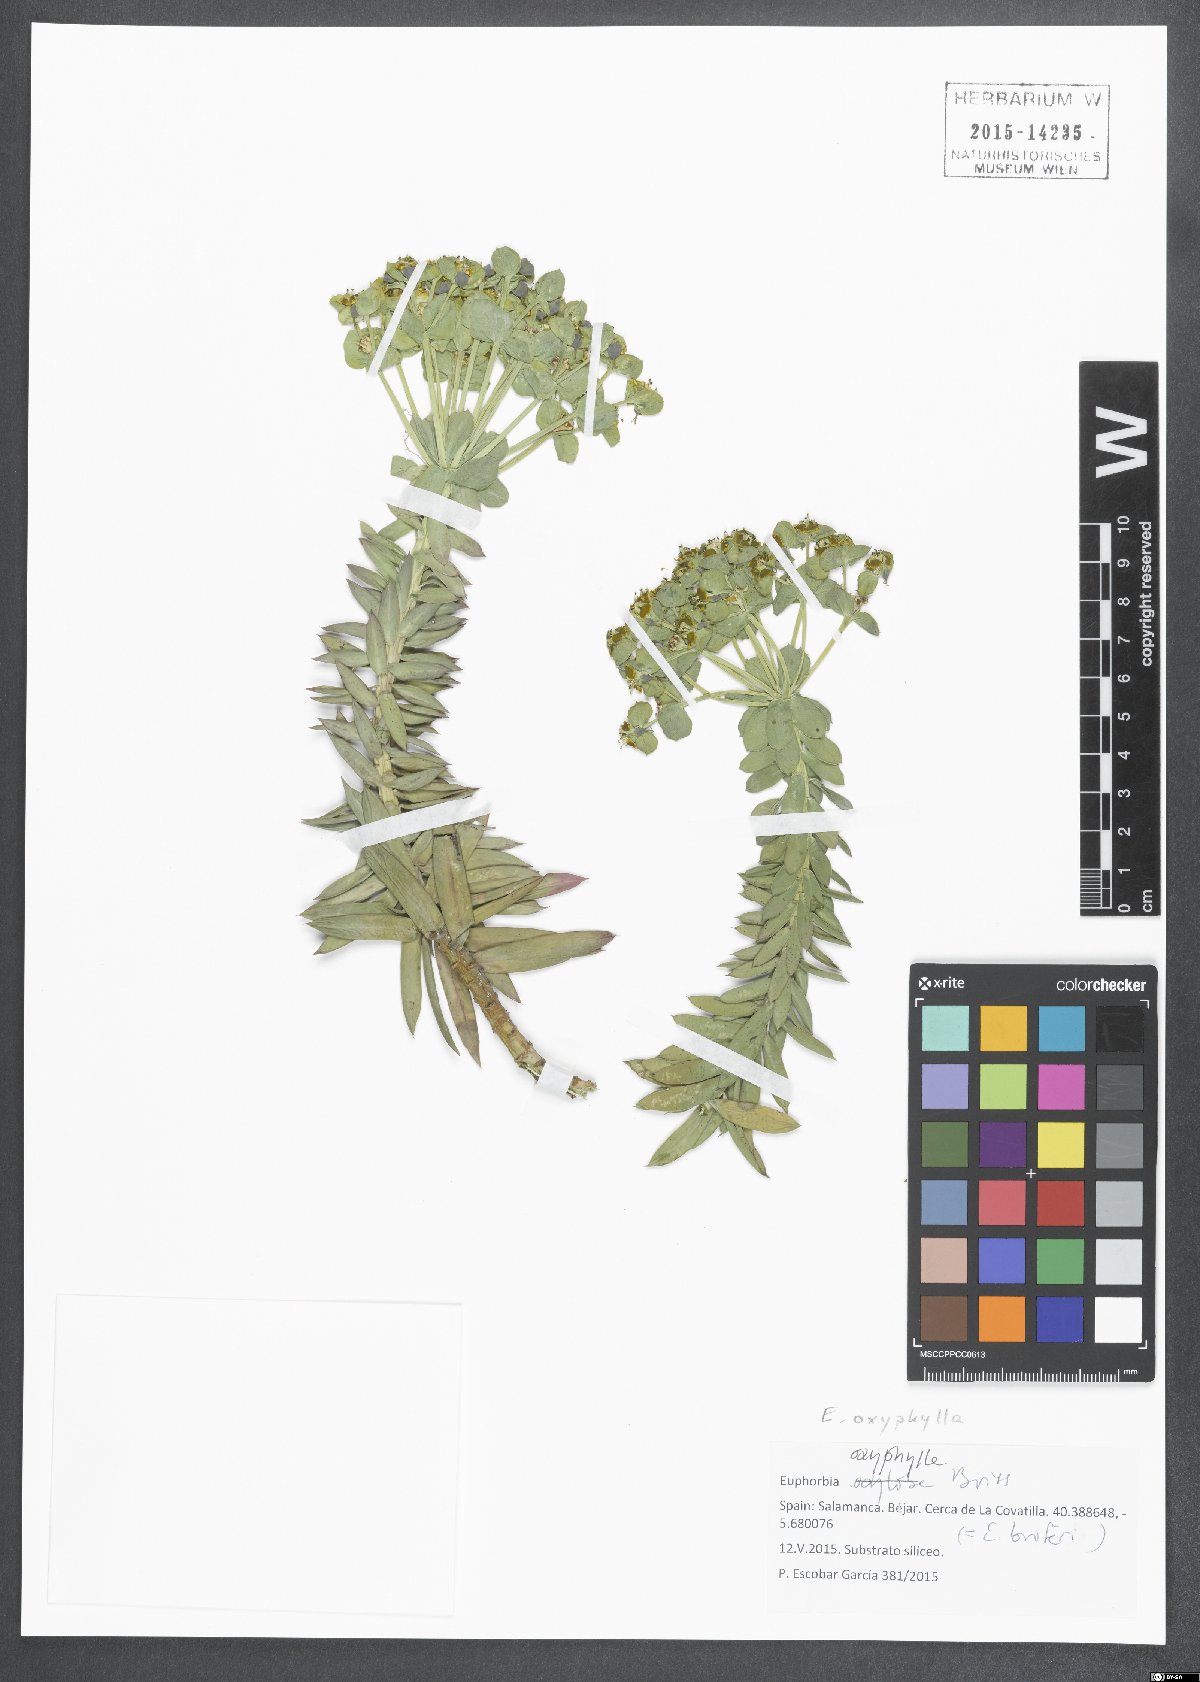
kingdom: Plantae
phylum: Tracheophyta
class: Magnoliopsida
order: Malpighiales
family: Euphorbiaceae
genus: Euphorbia
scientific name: Euphorbia oxyphylla
